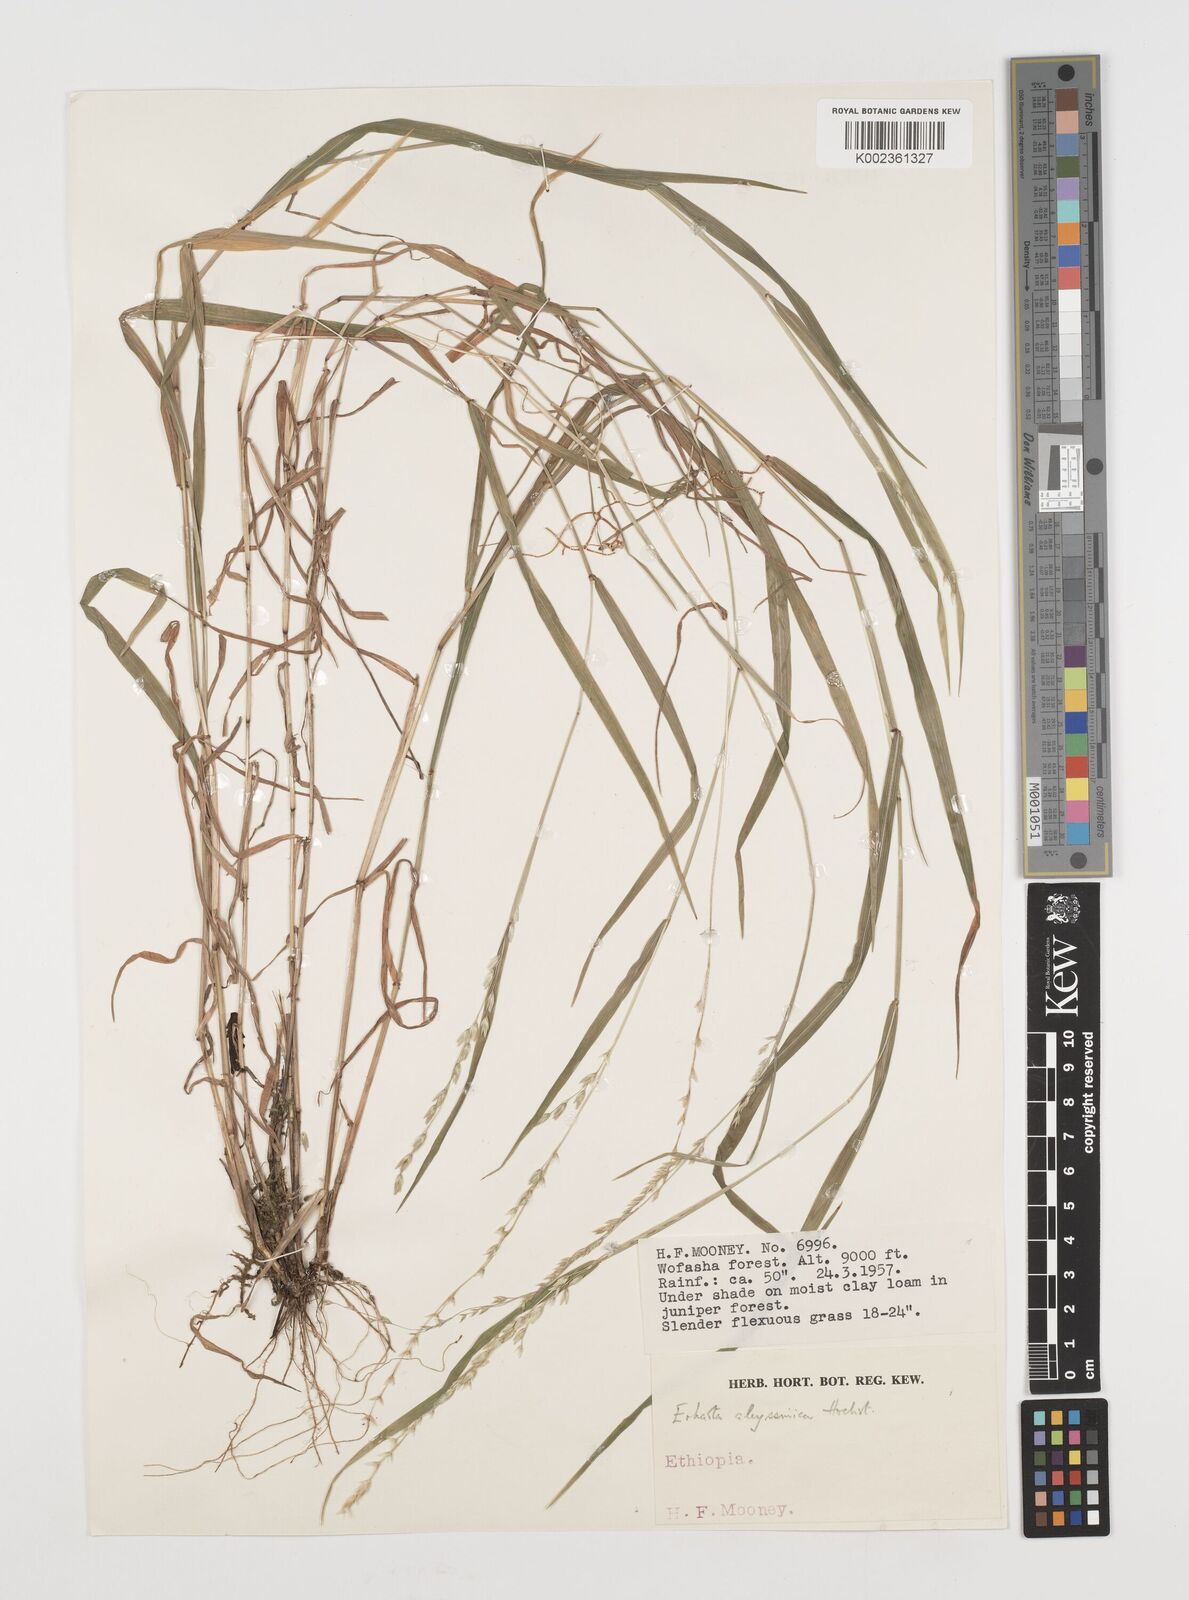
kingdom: Plantae
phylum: Tracheophyta
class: Liliopsida
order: Poales
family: Poaceae
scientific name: Poaceae
